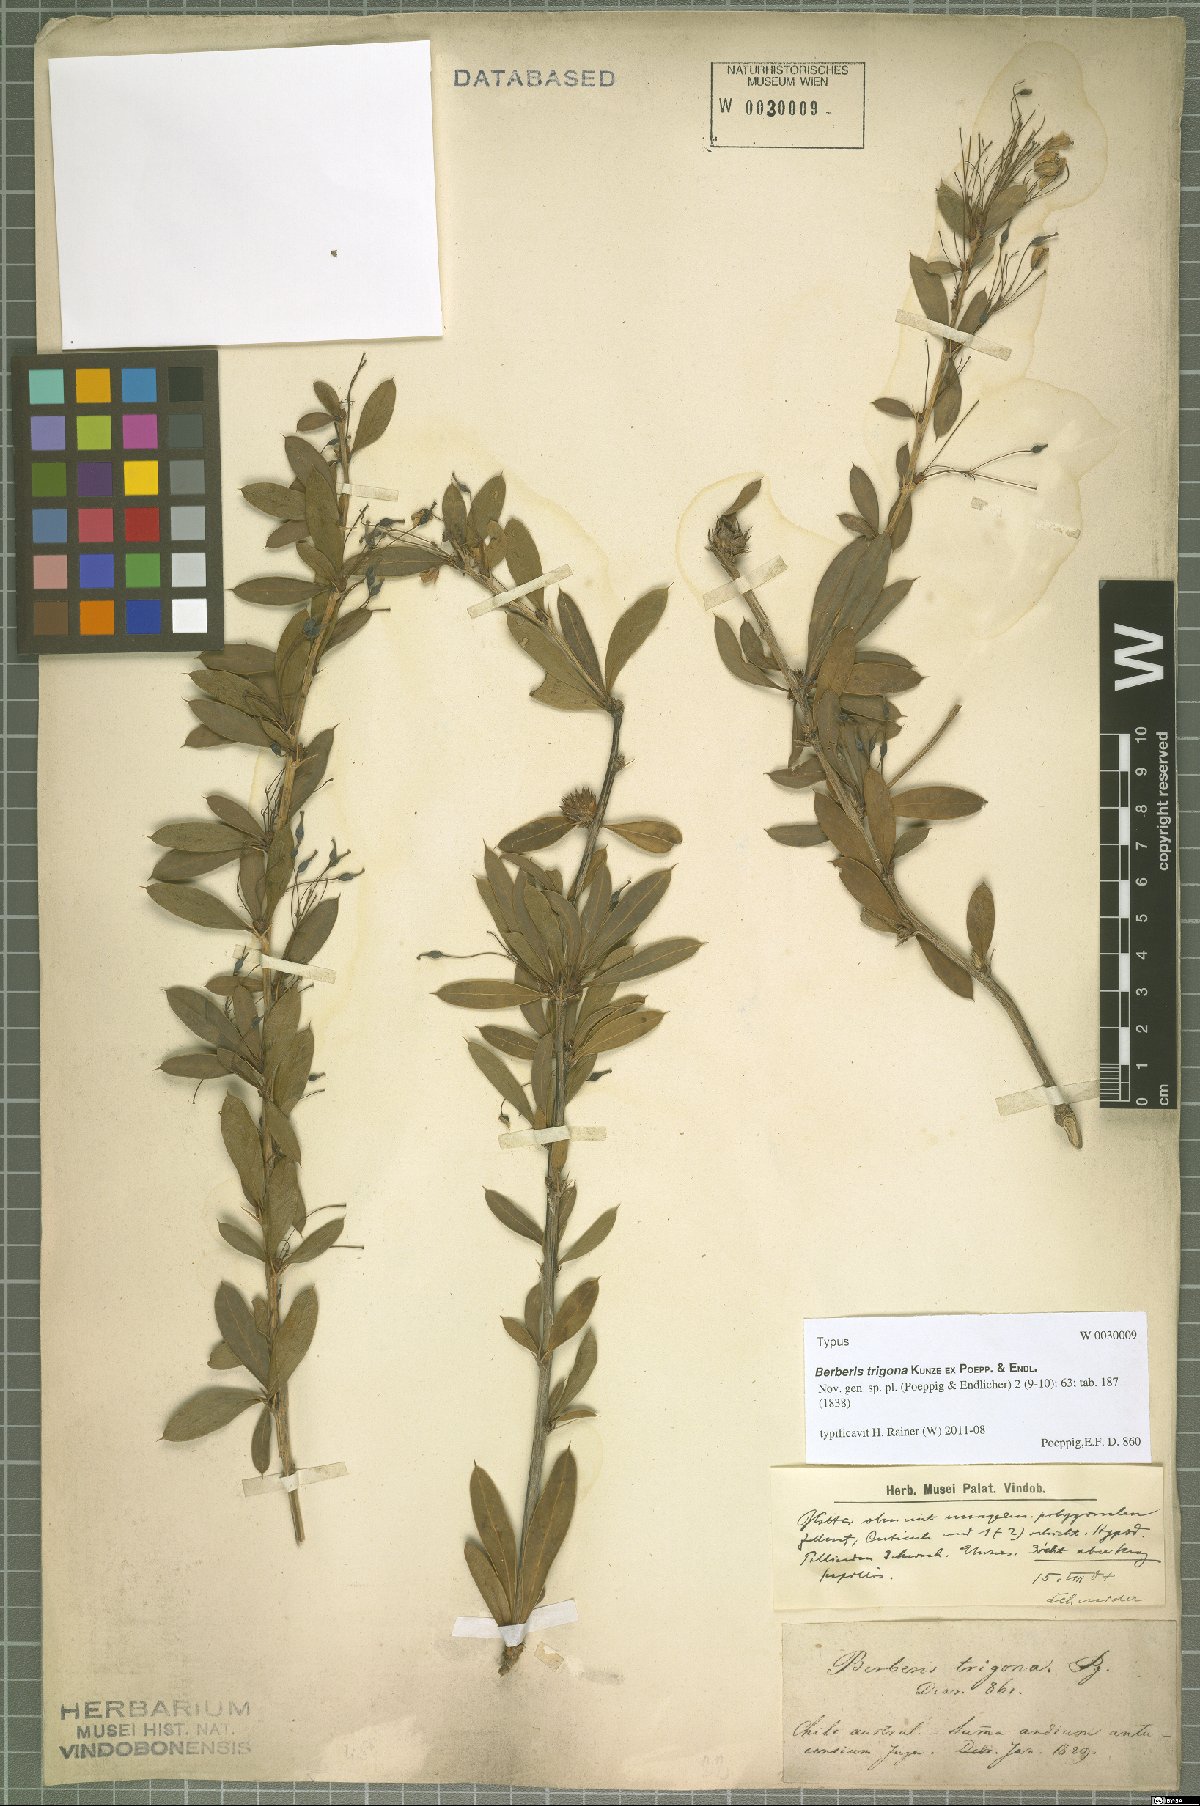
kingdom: Plantae
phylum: Tracheophyta
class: Magnoliopsida
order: Ranunculales
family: Berberidaceae
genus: Berberis
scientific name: Berberis trigona
